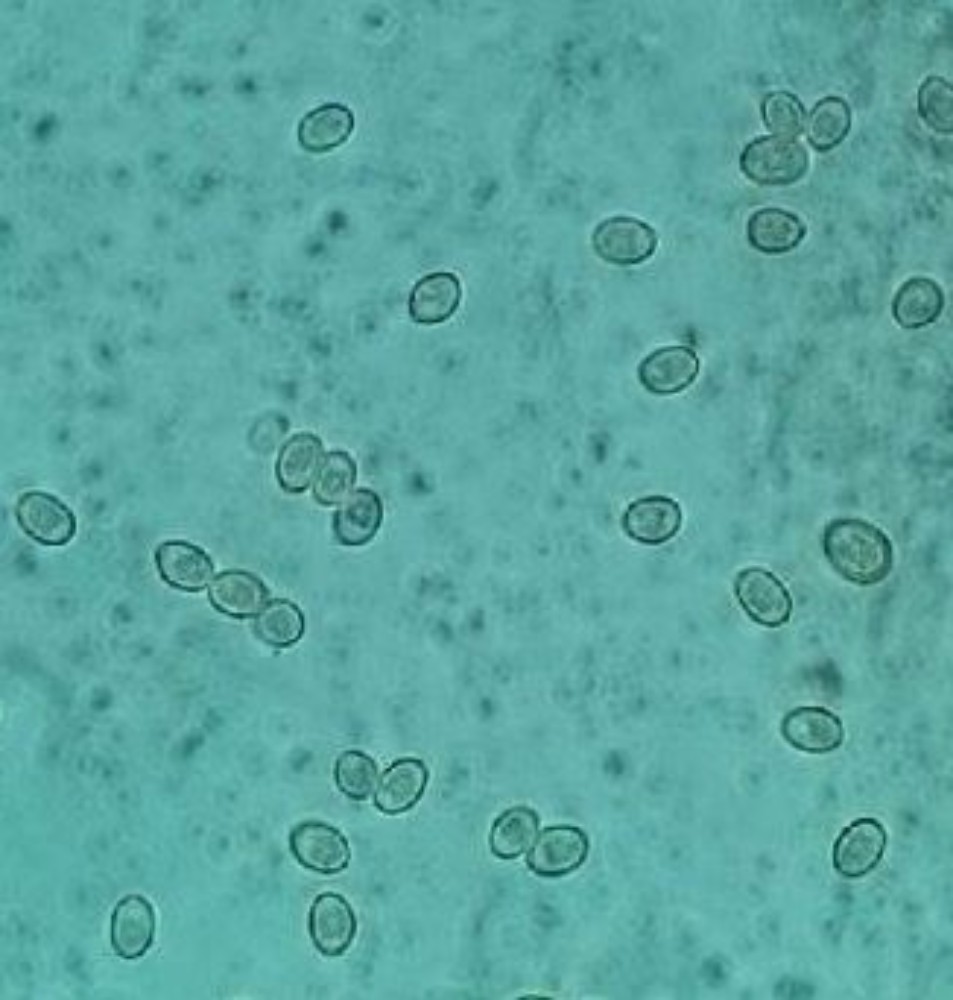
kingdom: Fungi
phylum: Basidiomycota
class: Agaricomycetes
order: Agaricales
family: Pluteaceae
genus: Volvariella
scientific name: Volvariella murinella
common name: musegrå posesvamp
